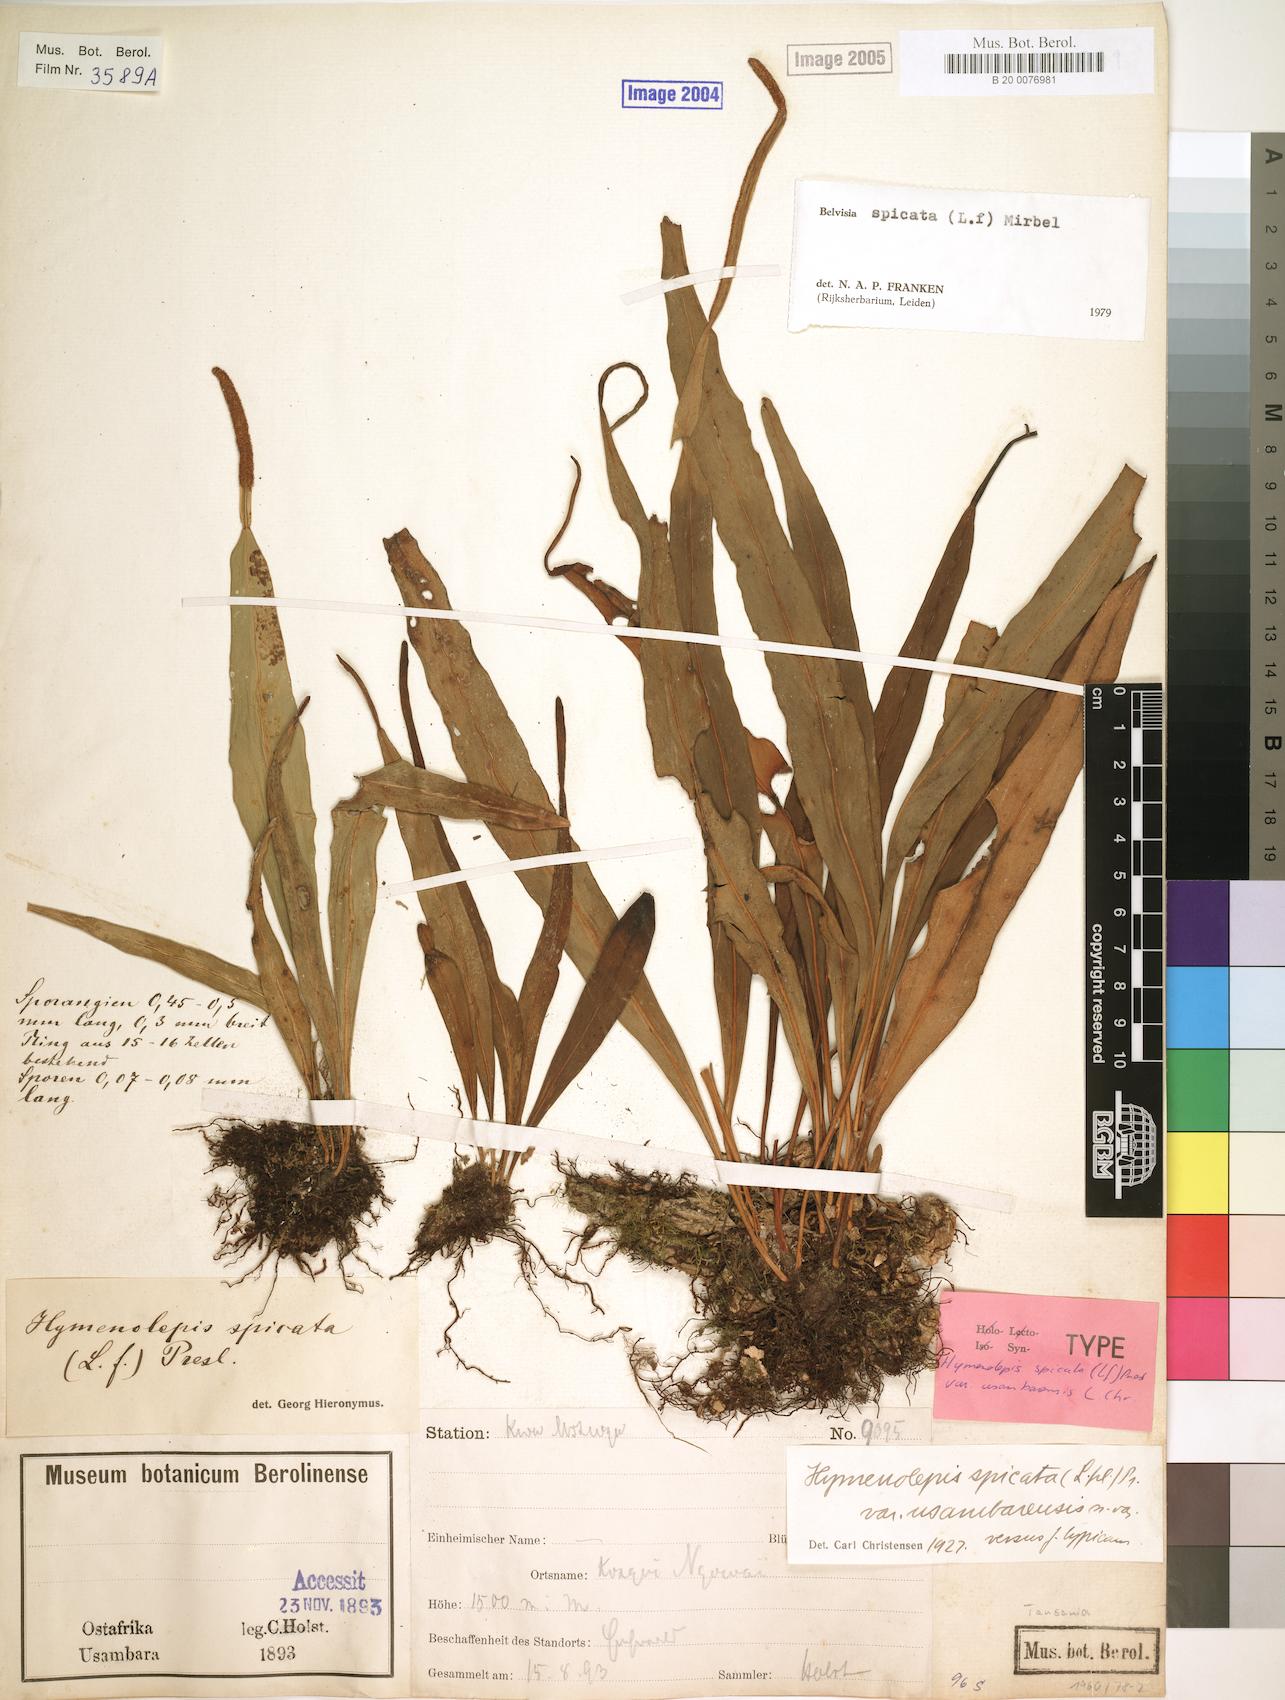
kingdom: Plantae
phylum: Tracheophyta
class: Polypodiopsida
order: Polypodiales
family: Polypodiaceae
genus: Lepisorus
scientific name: Lepisorus spicatus
